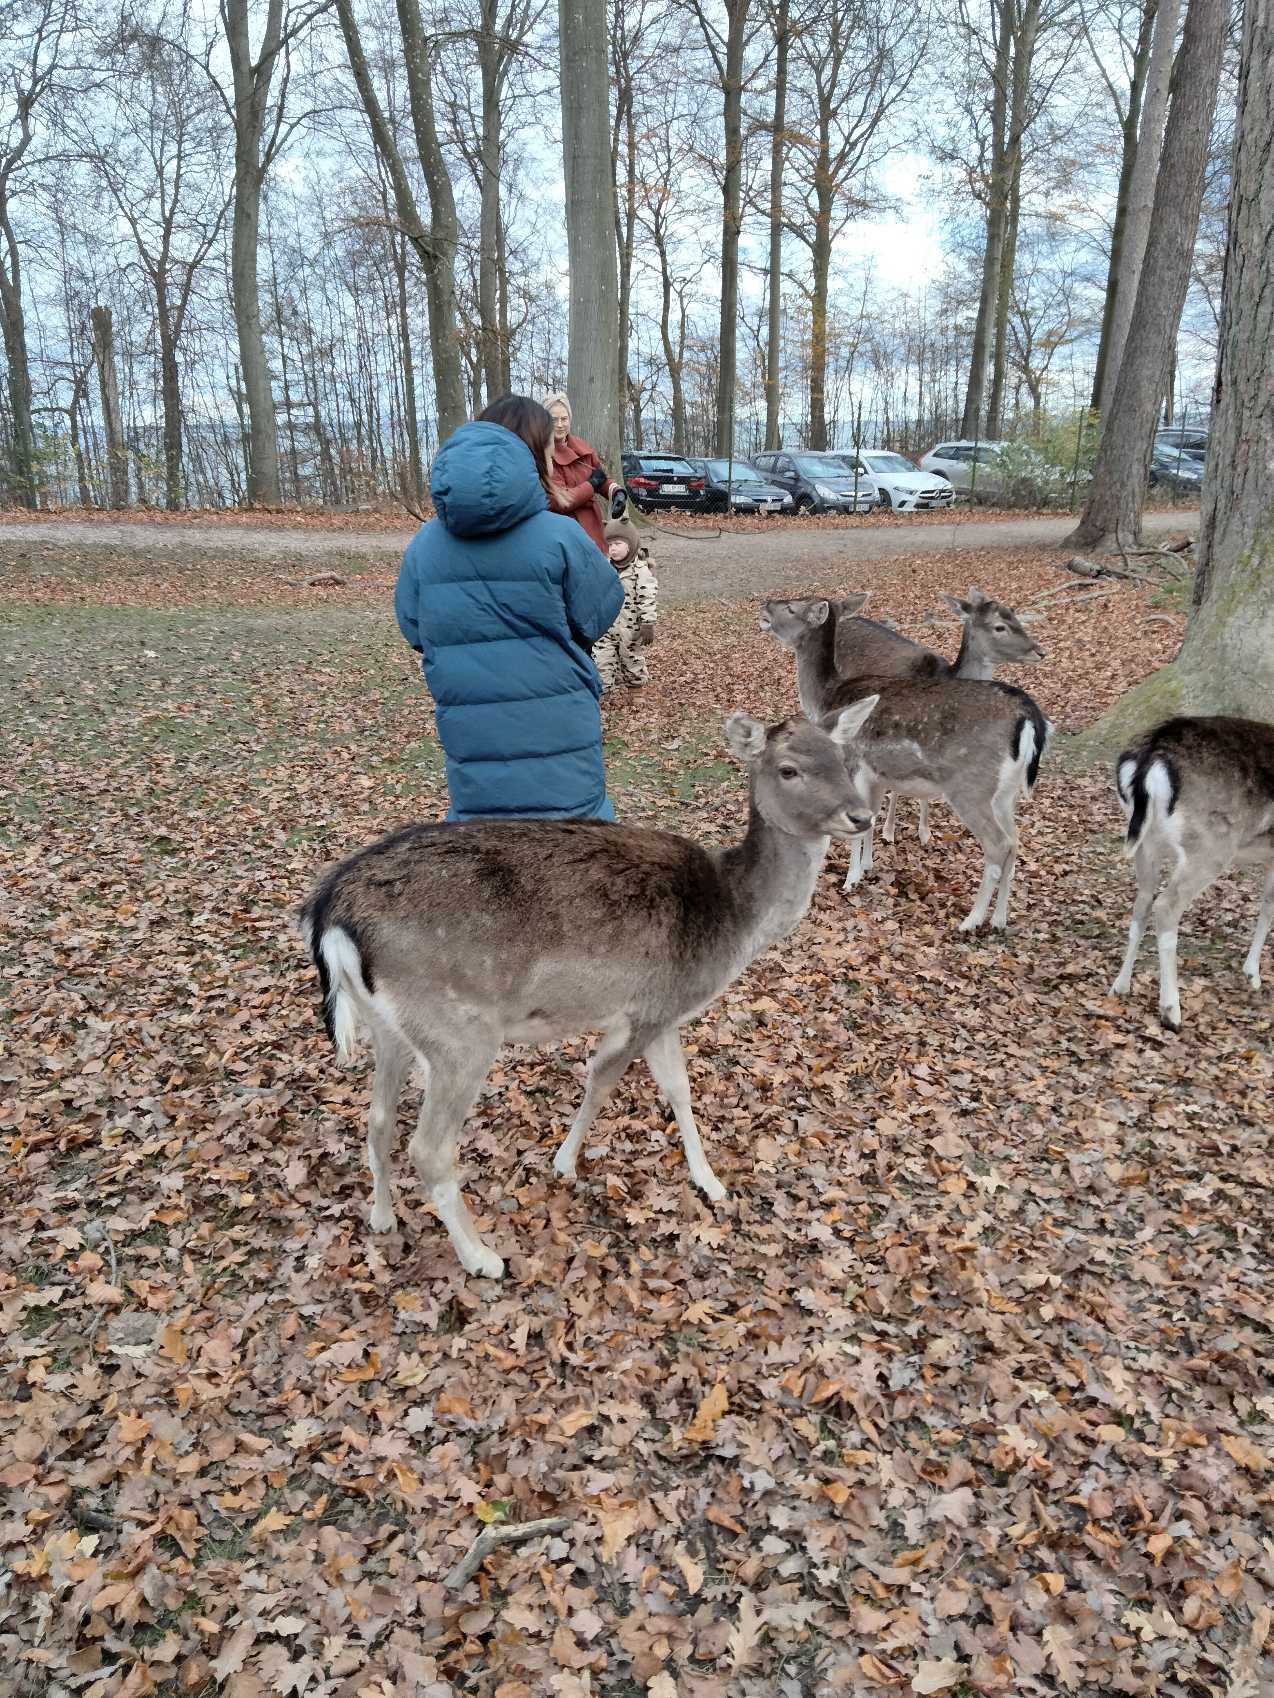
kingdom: Animalia
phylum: Chordata
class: Mammalia
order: Artiodactyla
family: Cervidae
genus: Dama
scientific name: Dama dama
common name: Dådyr
